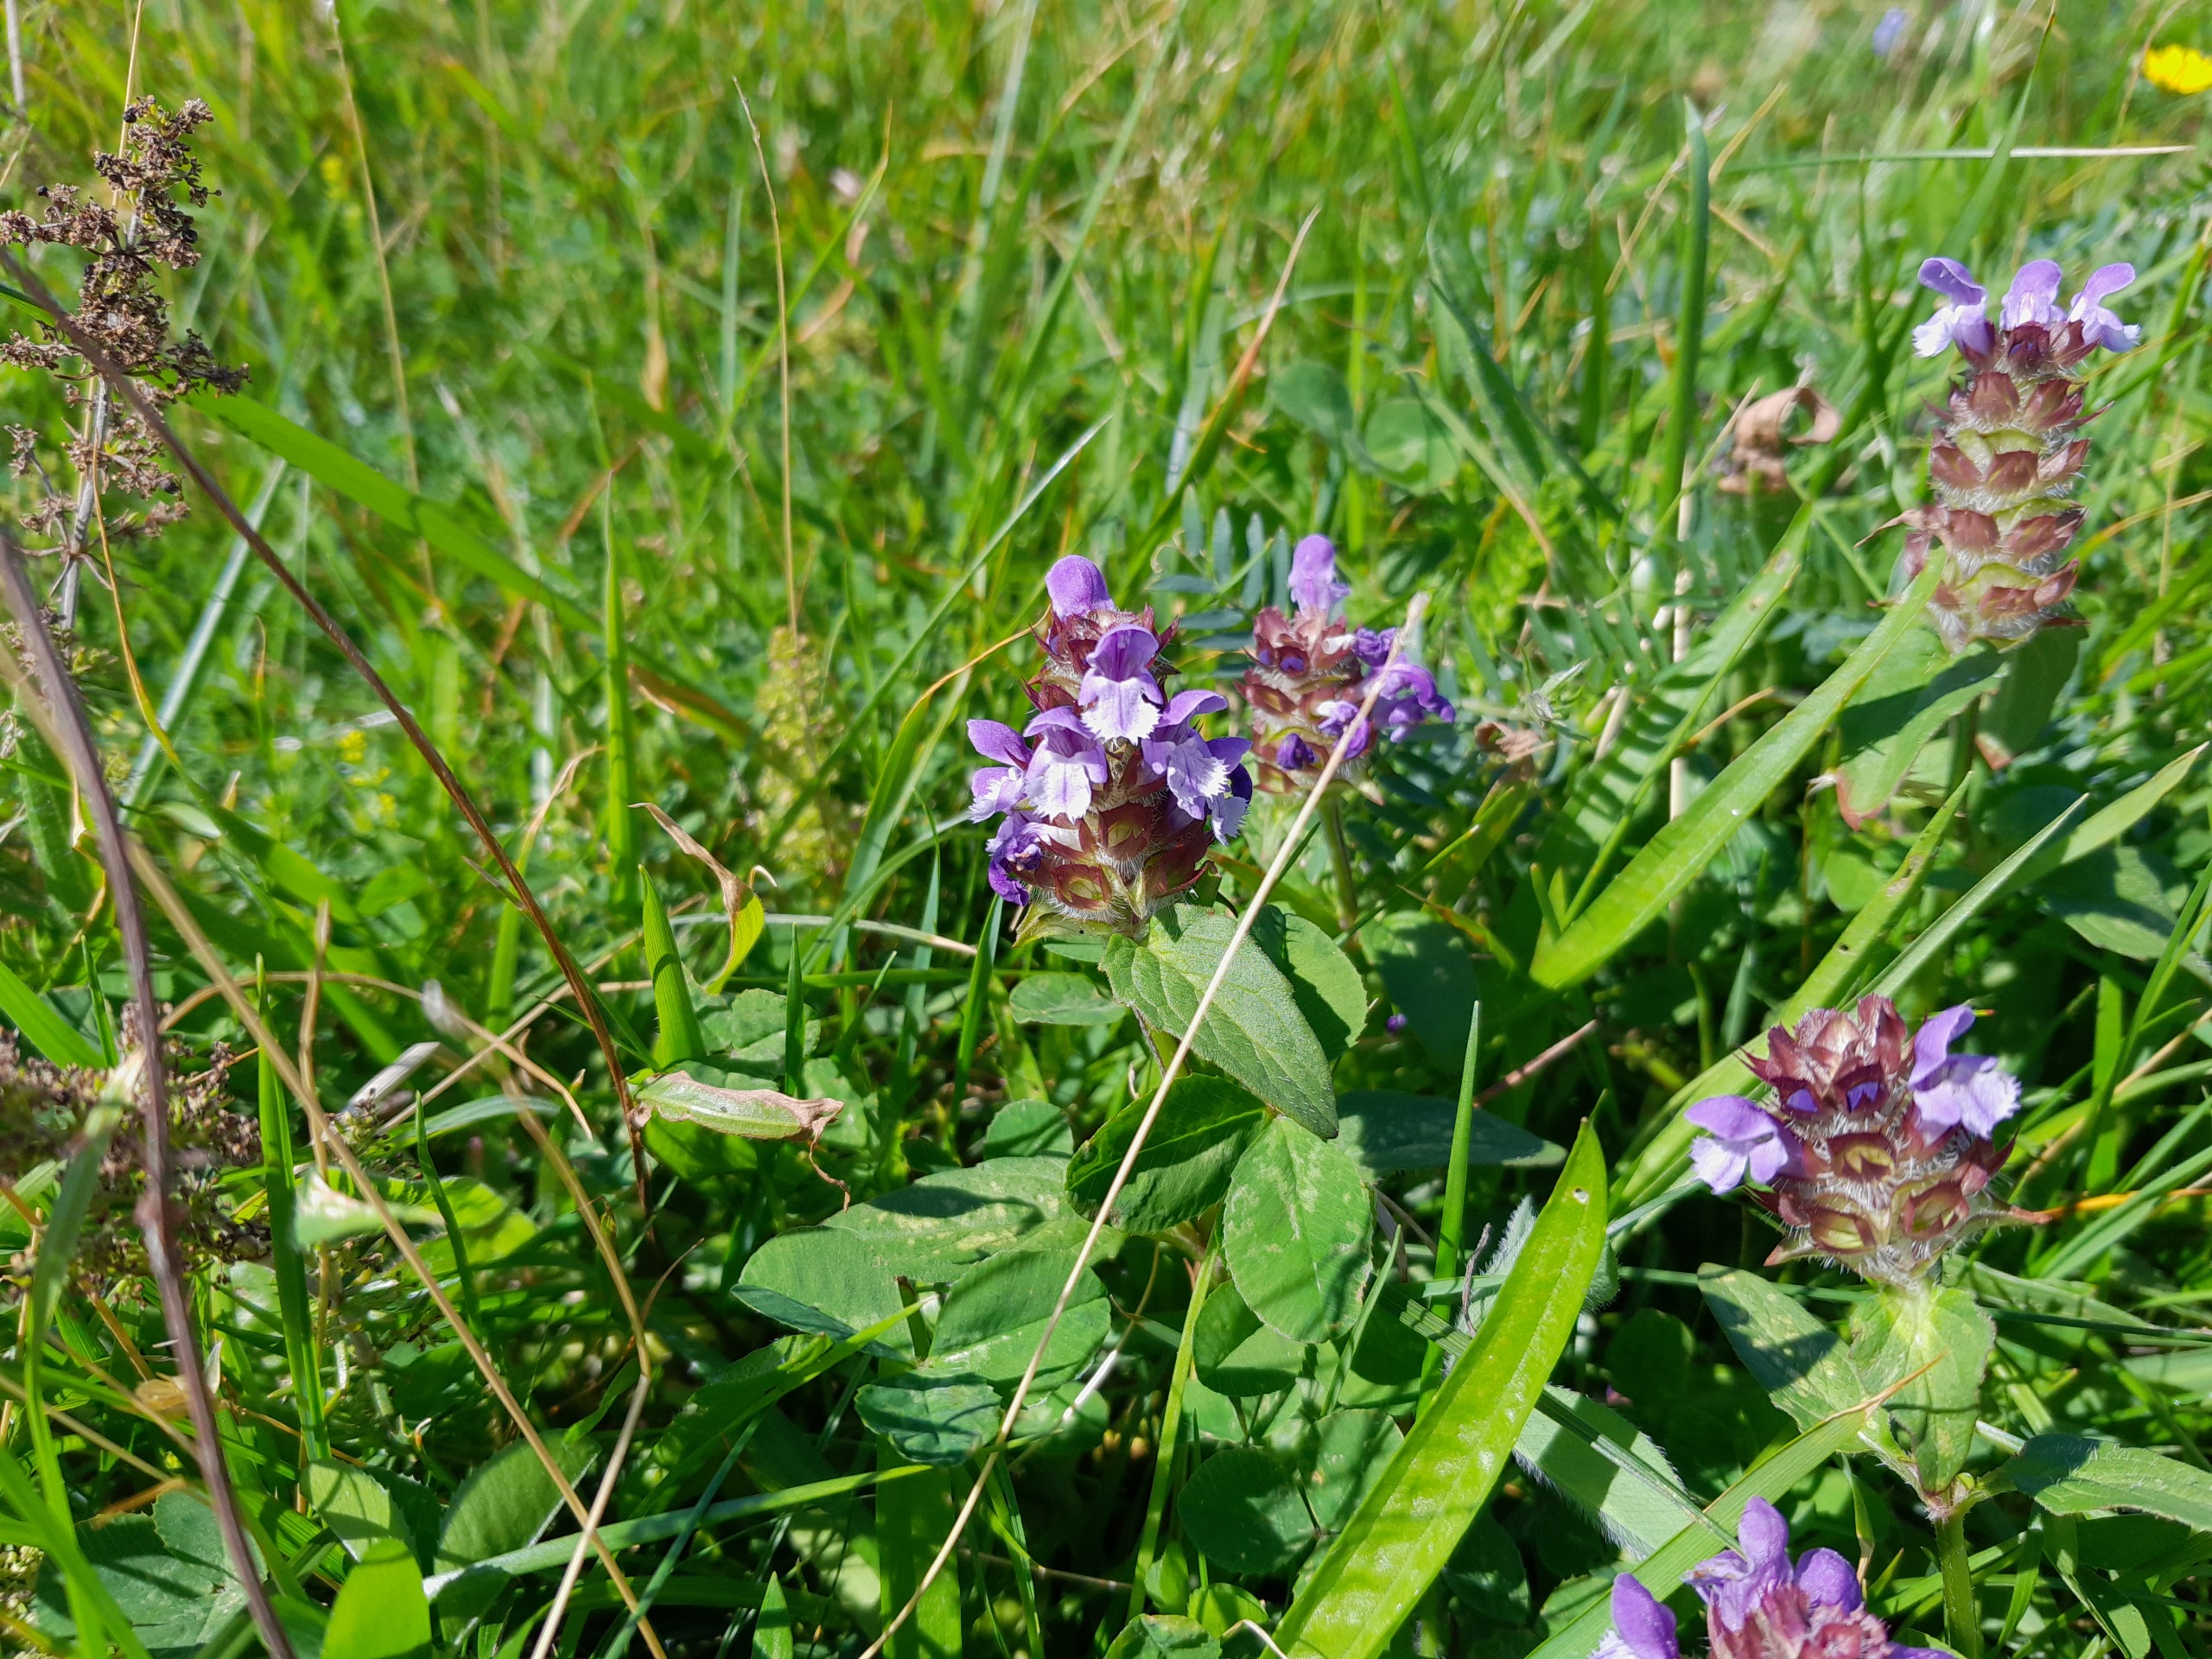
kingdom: Plantae
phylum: Tracheophyta
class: Magnoliopsida
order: Lamiales
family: Lamiaceae
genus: Prunella
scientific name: Prunella vulgaris
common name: Almindelig brunelle
